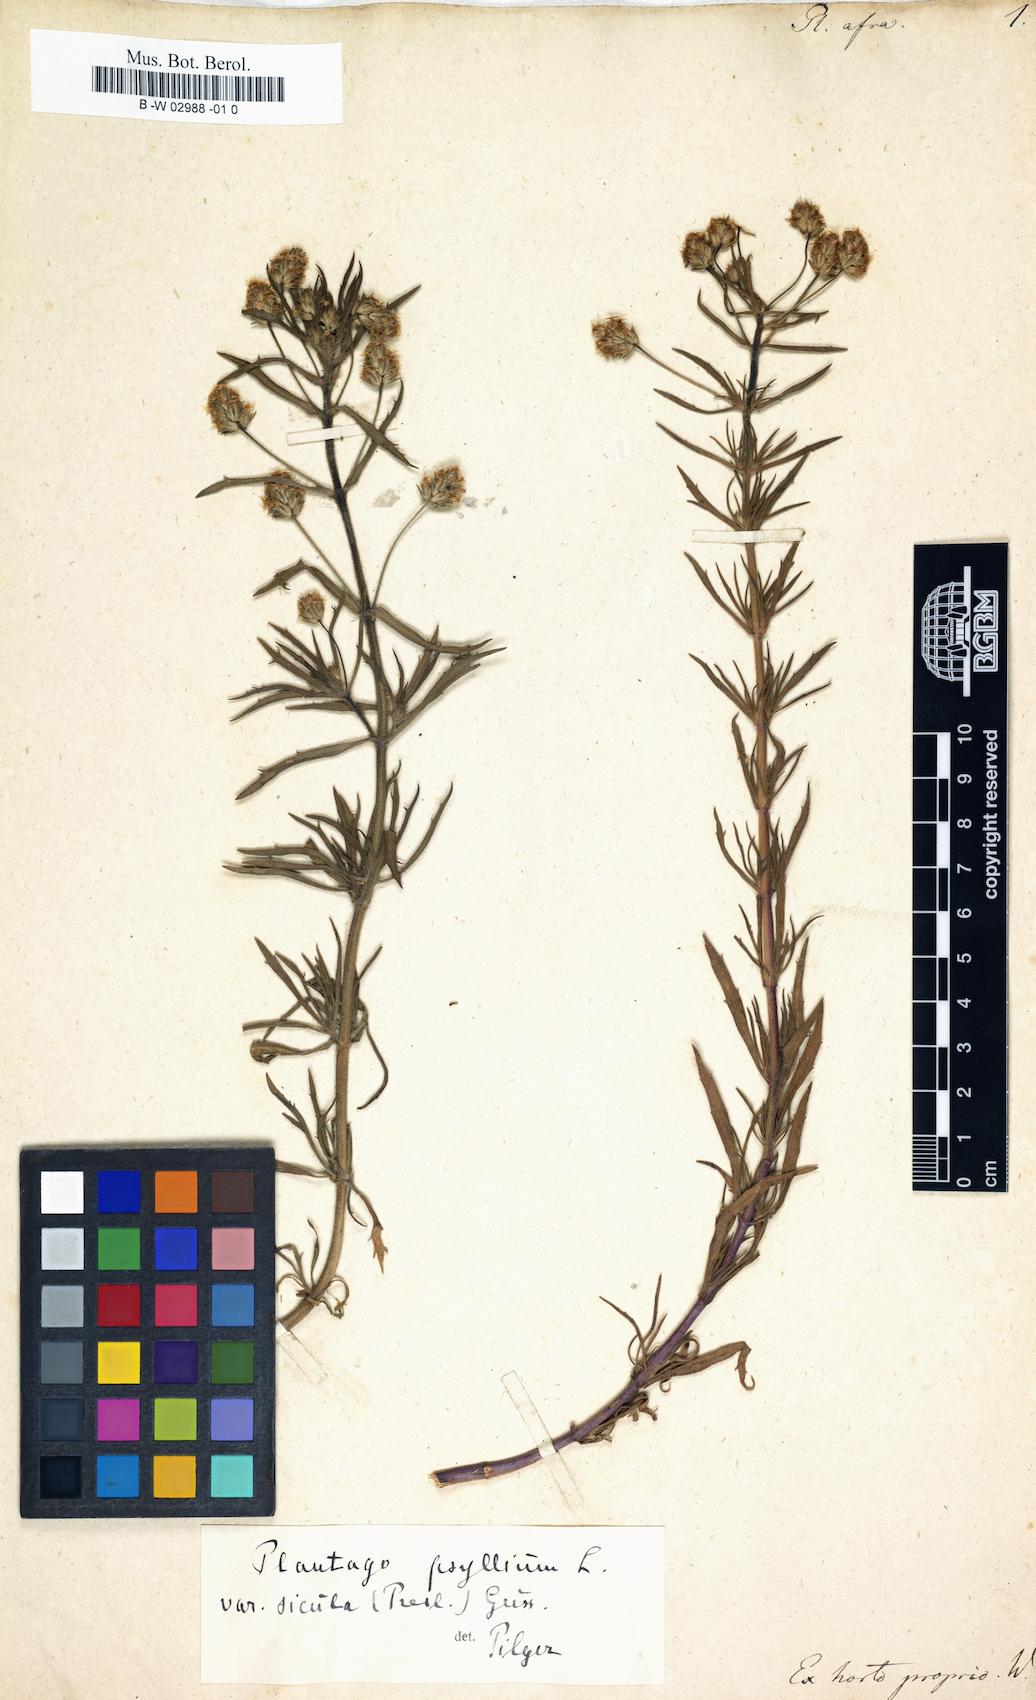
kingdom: Plantae
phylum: Tracheophyta
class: Magnoliopsida
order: Lamiales
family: Plantaginaceae
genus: Plantago
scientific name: Plantago afra
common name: Glandular plantain
